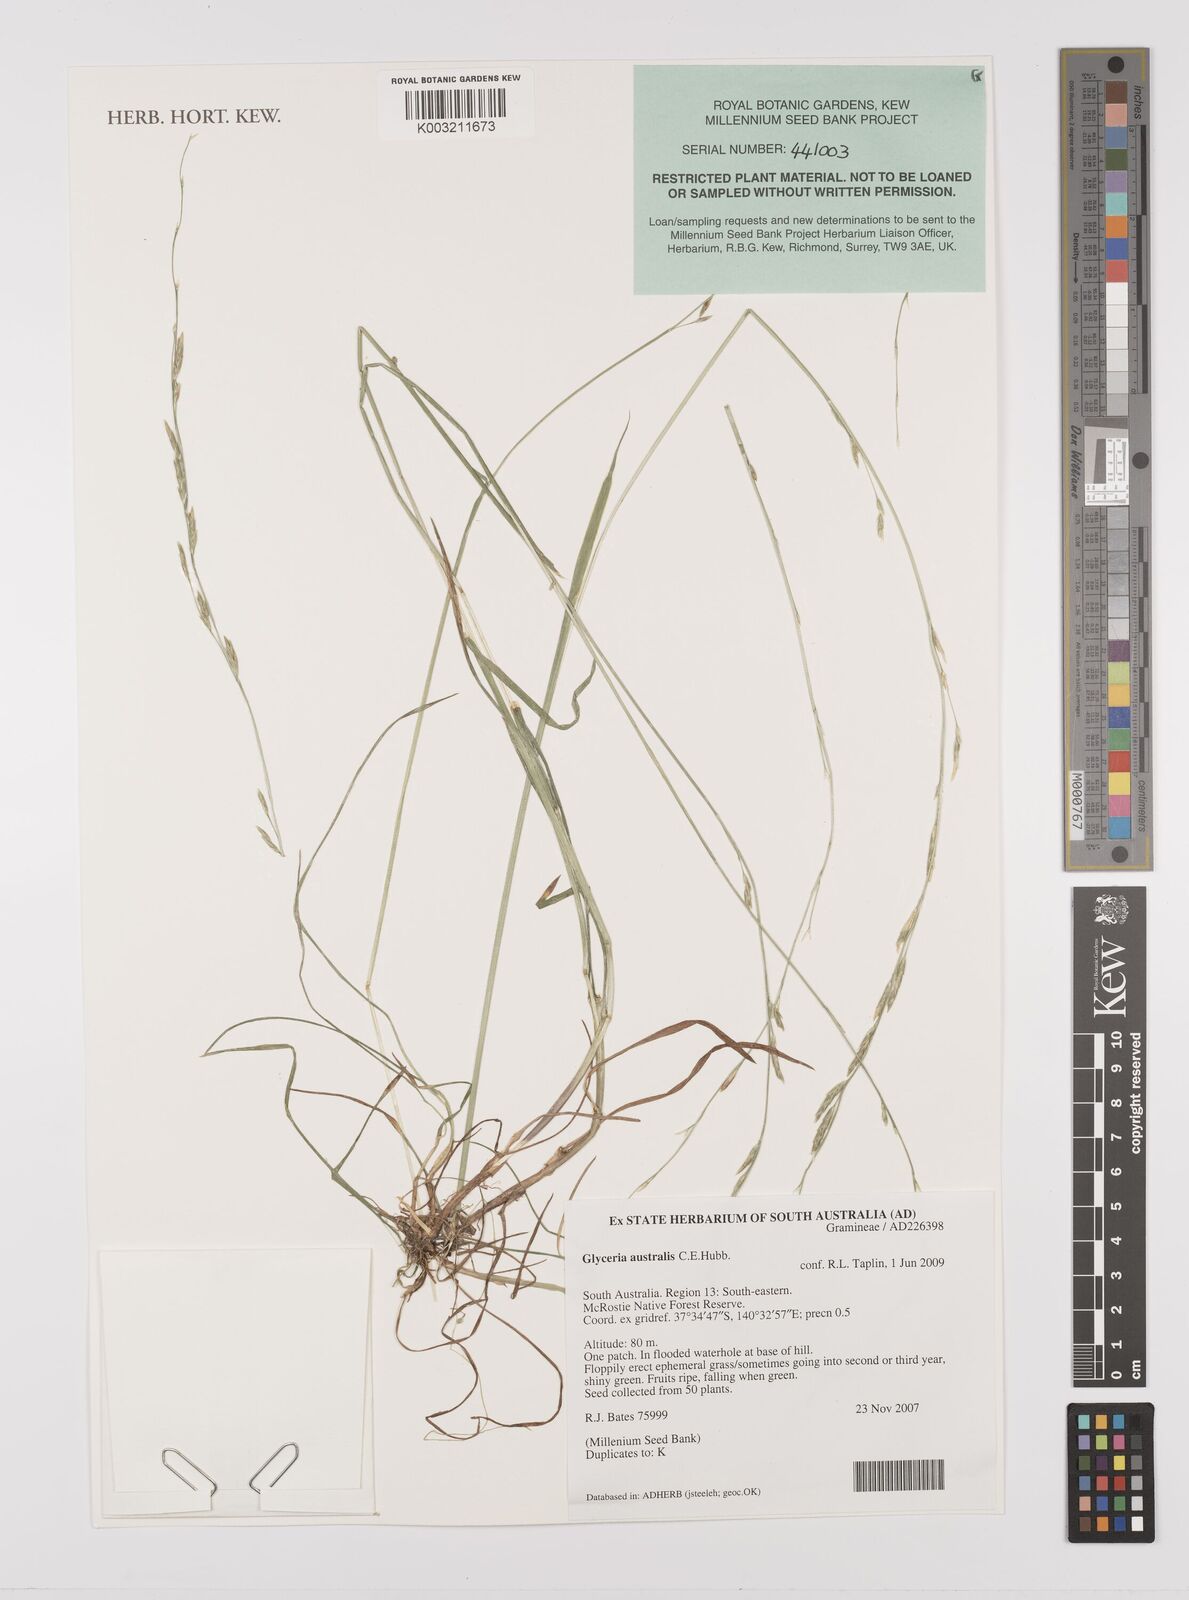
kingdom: Plantae
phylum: Tracheophyta
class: Liliopsida
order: Poales
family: Poaceae
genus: Glyceria
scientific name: Glyceria australis
